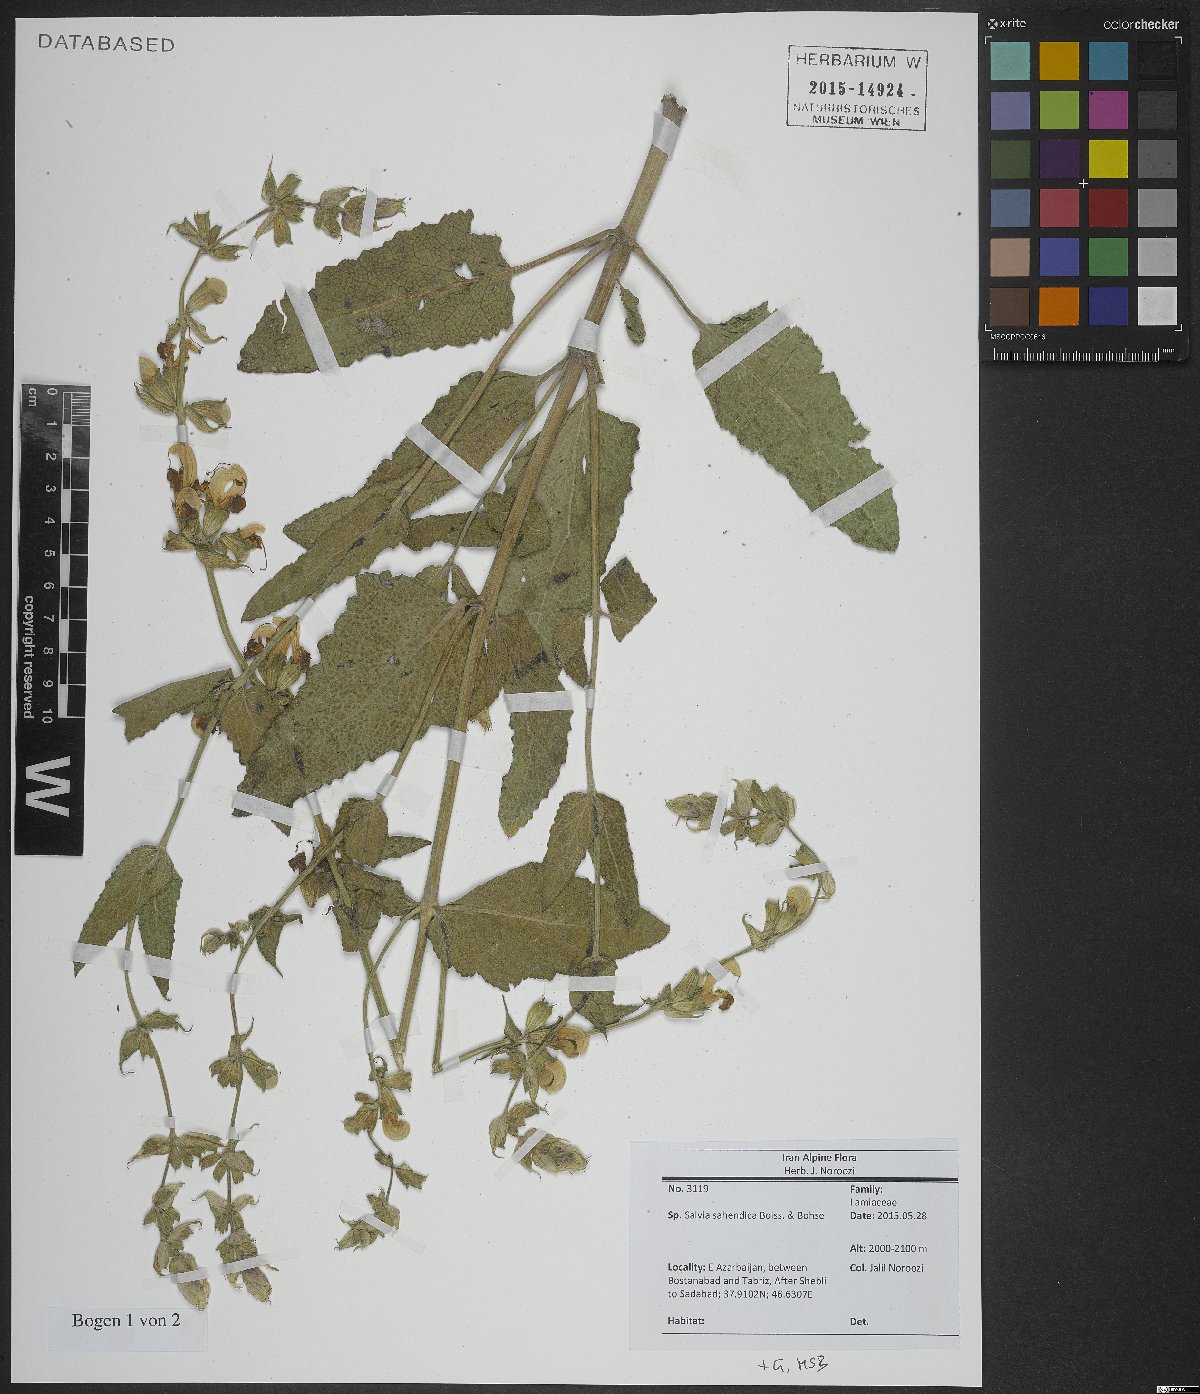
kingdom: Plantae
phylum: Tracheophyta
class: Magnoliopsida
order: Lamiales
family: Lamiaceae
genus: Salvia
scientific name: Salvia sahendica
